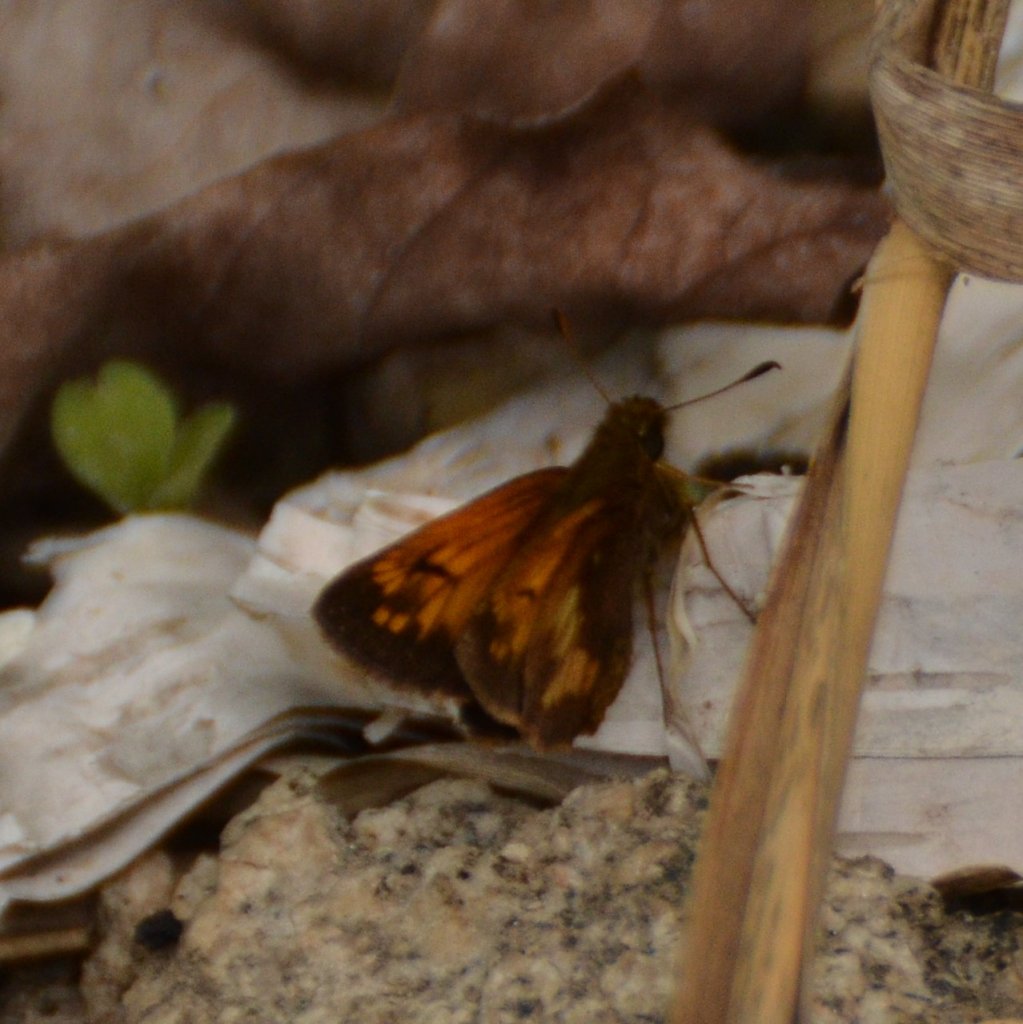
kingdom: Animalia
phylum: Arthropoda
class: Insecta
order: Lepidoptera
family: Hesperiidae
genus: Lon
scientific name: Lon hobomok
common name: Hobomok Skipper
